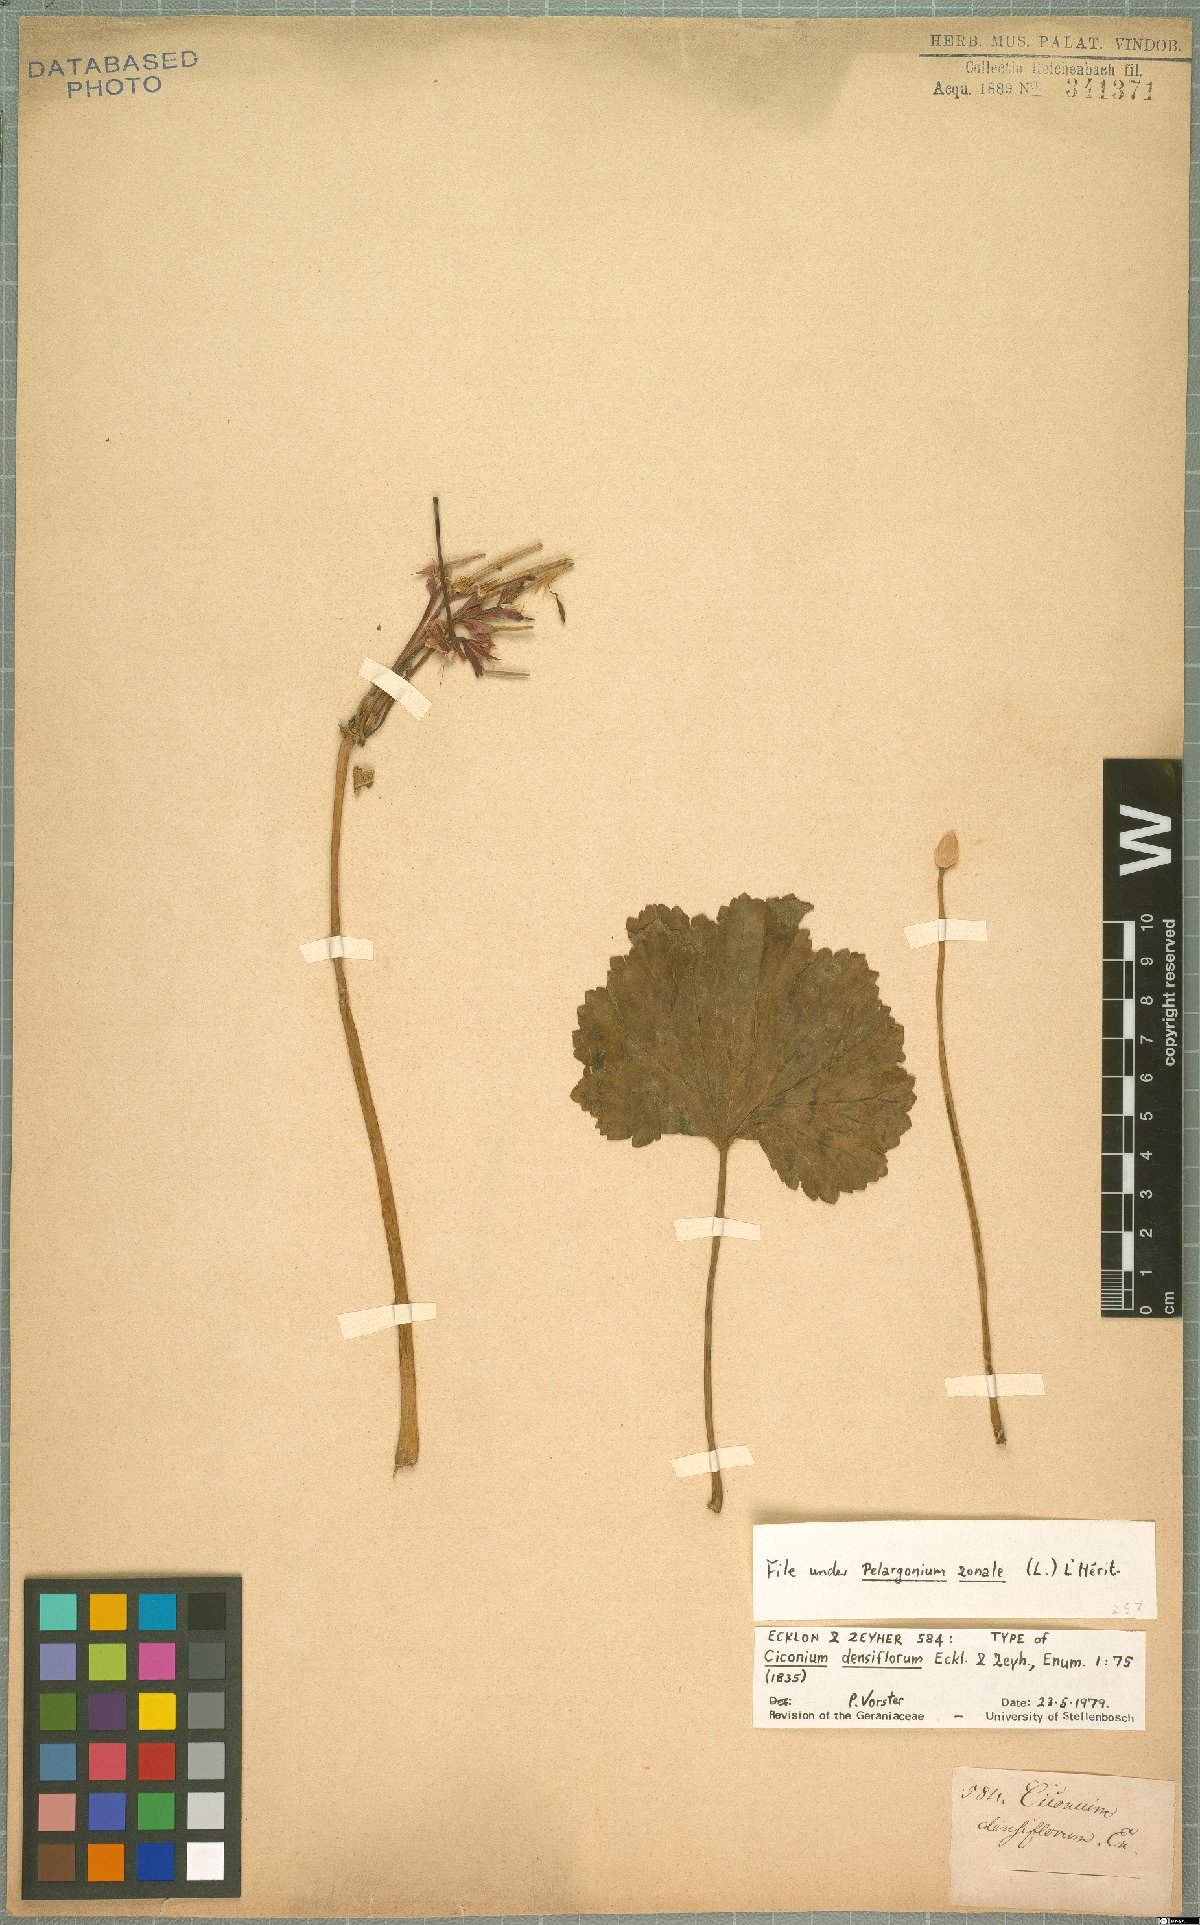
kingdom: Plantae
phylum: Tracheophyta
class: Magnoliopsida
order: Geraniales
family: Geraniaceae
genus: Pelargonium
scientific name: Pelargonium zonale
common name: Horseshoe geranium
